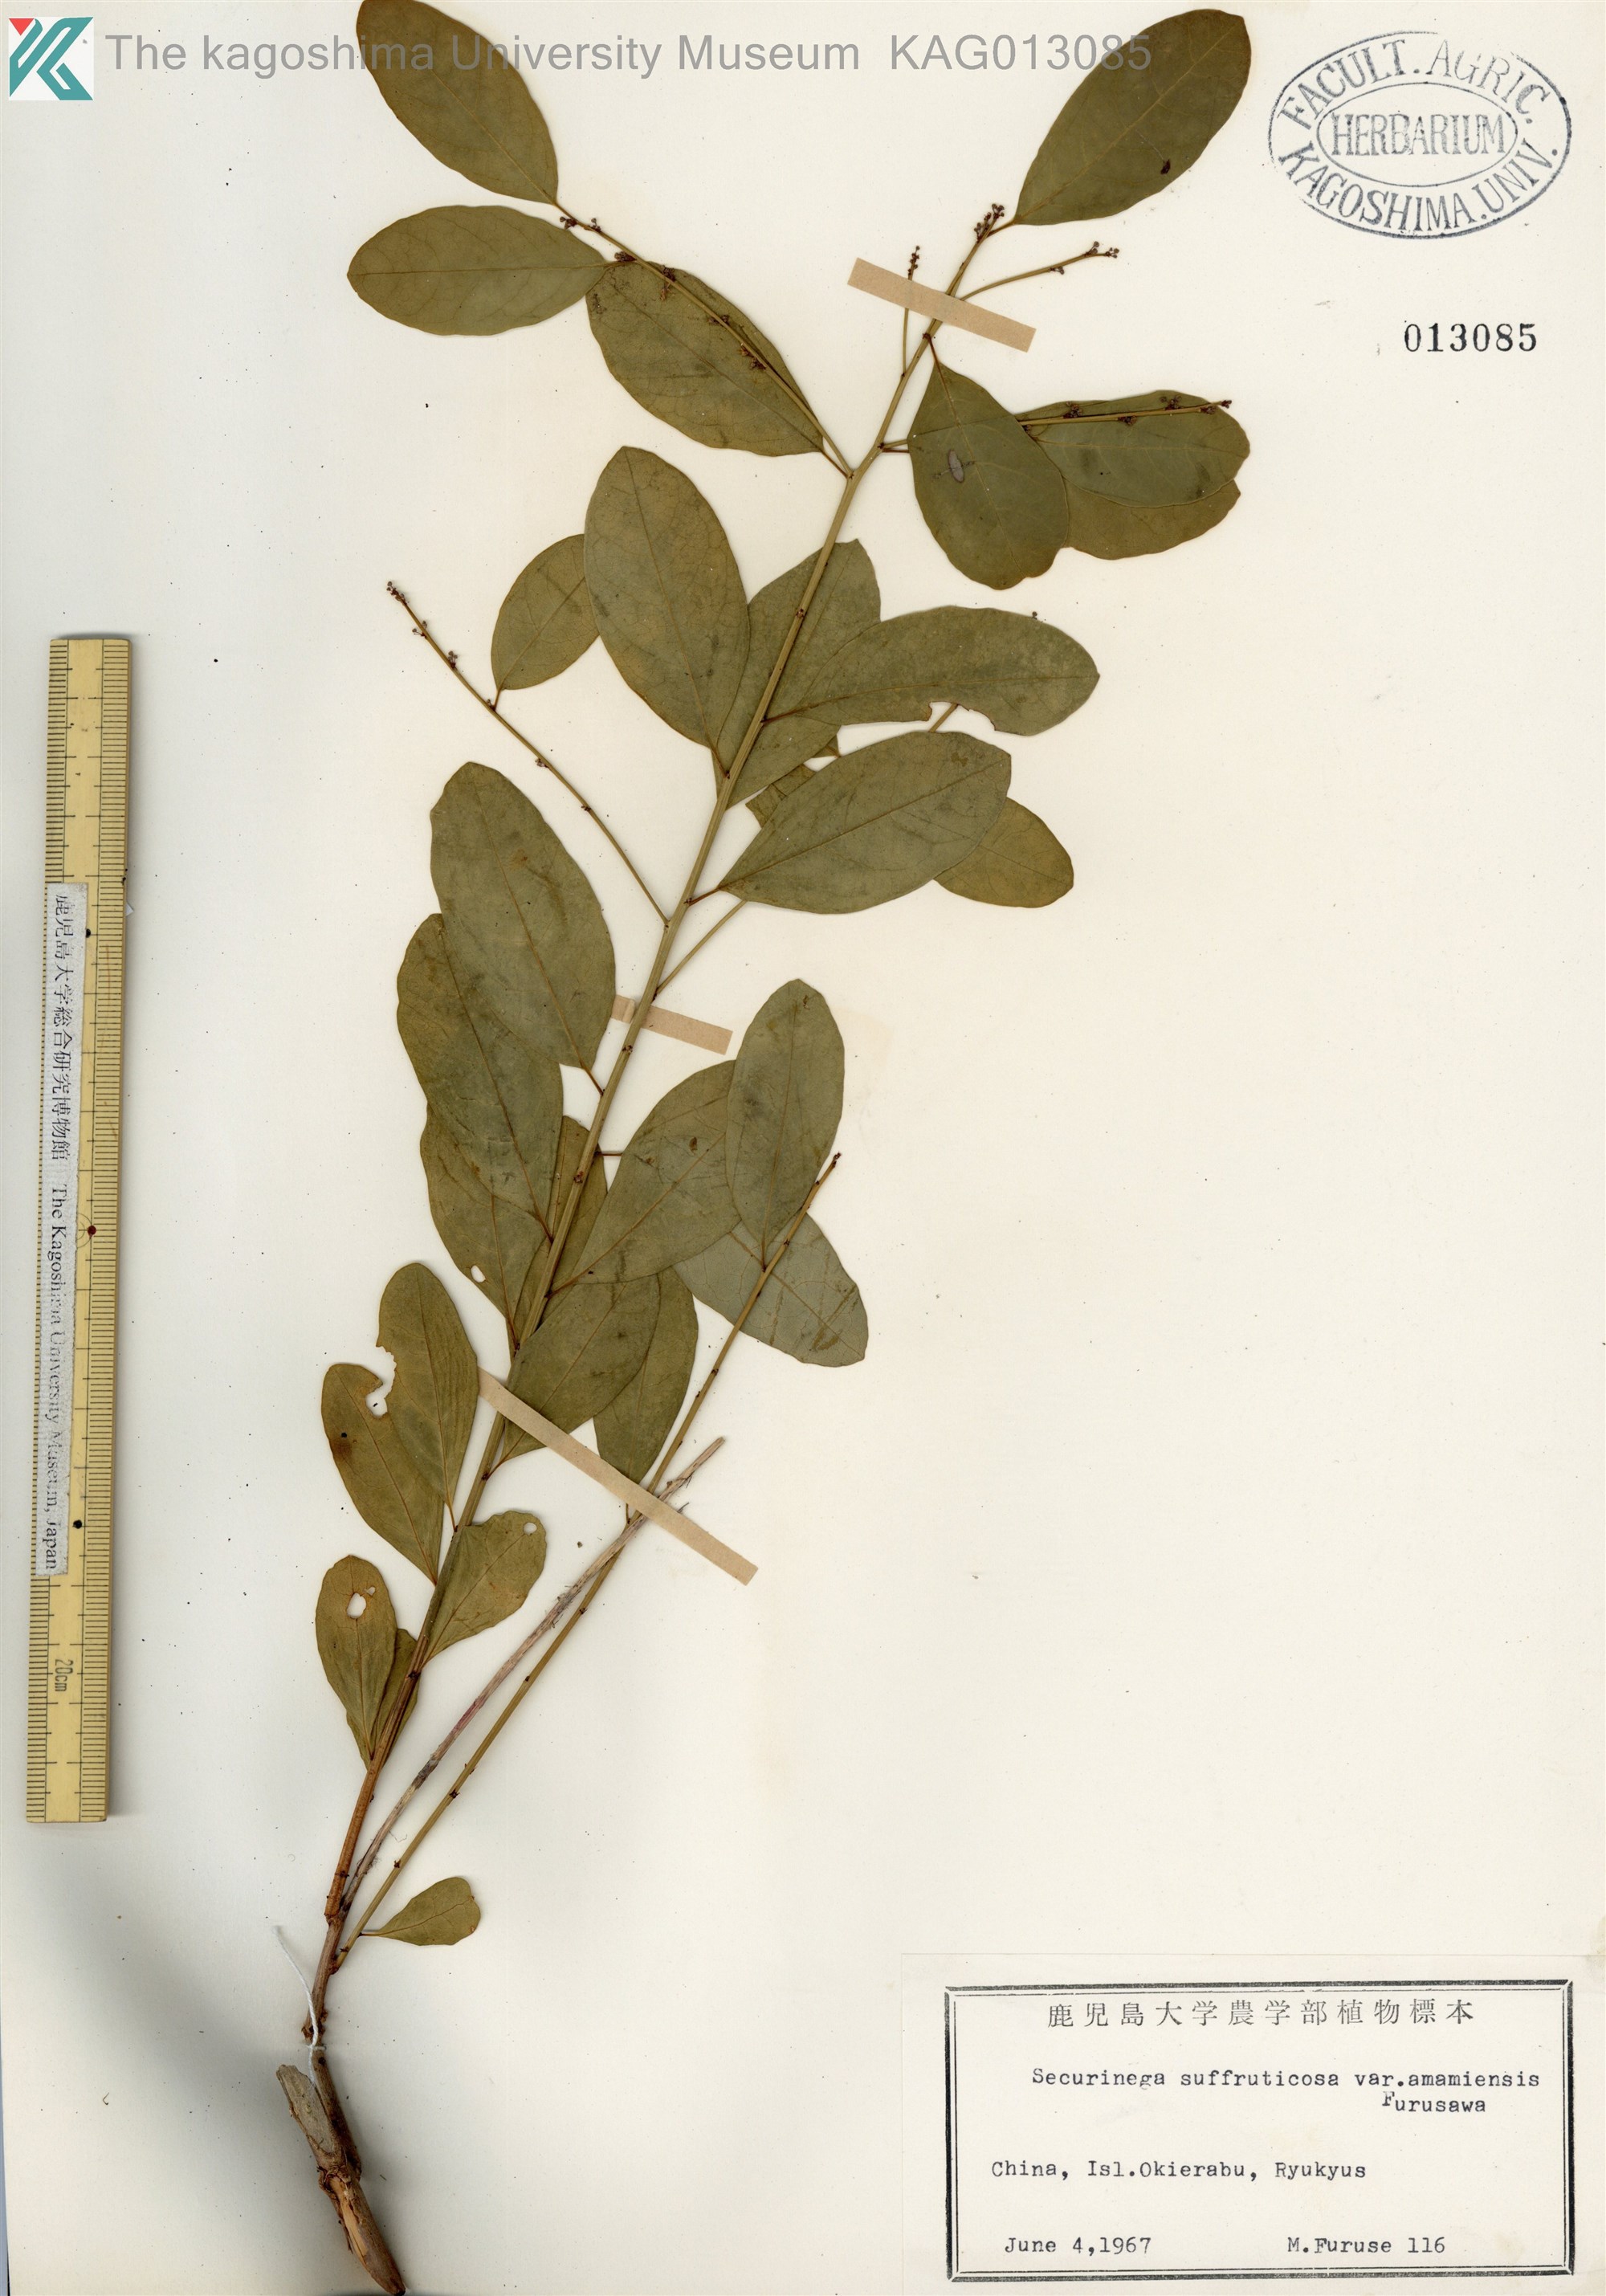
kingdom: Plantae
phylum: Tracheophyta
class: Magnoliopsida
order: Malpighiales
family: Phyllanthaceae
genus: Flueggea
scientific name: Flueggea suffruticosa
